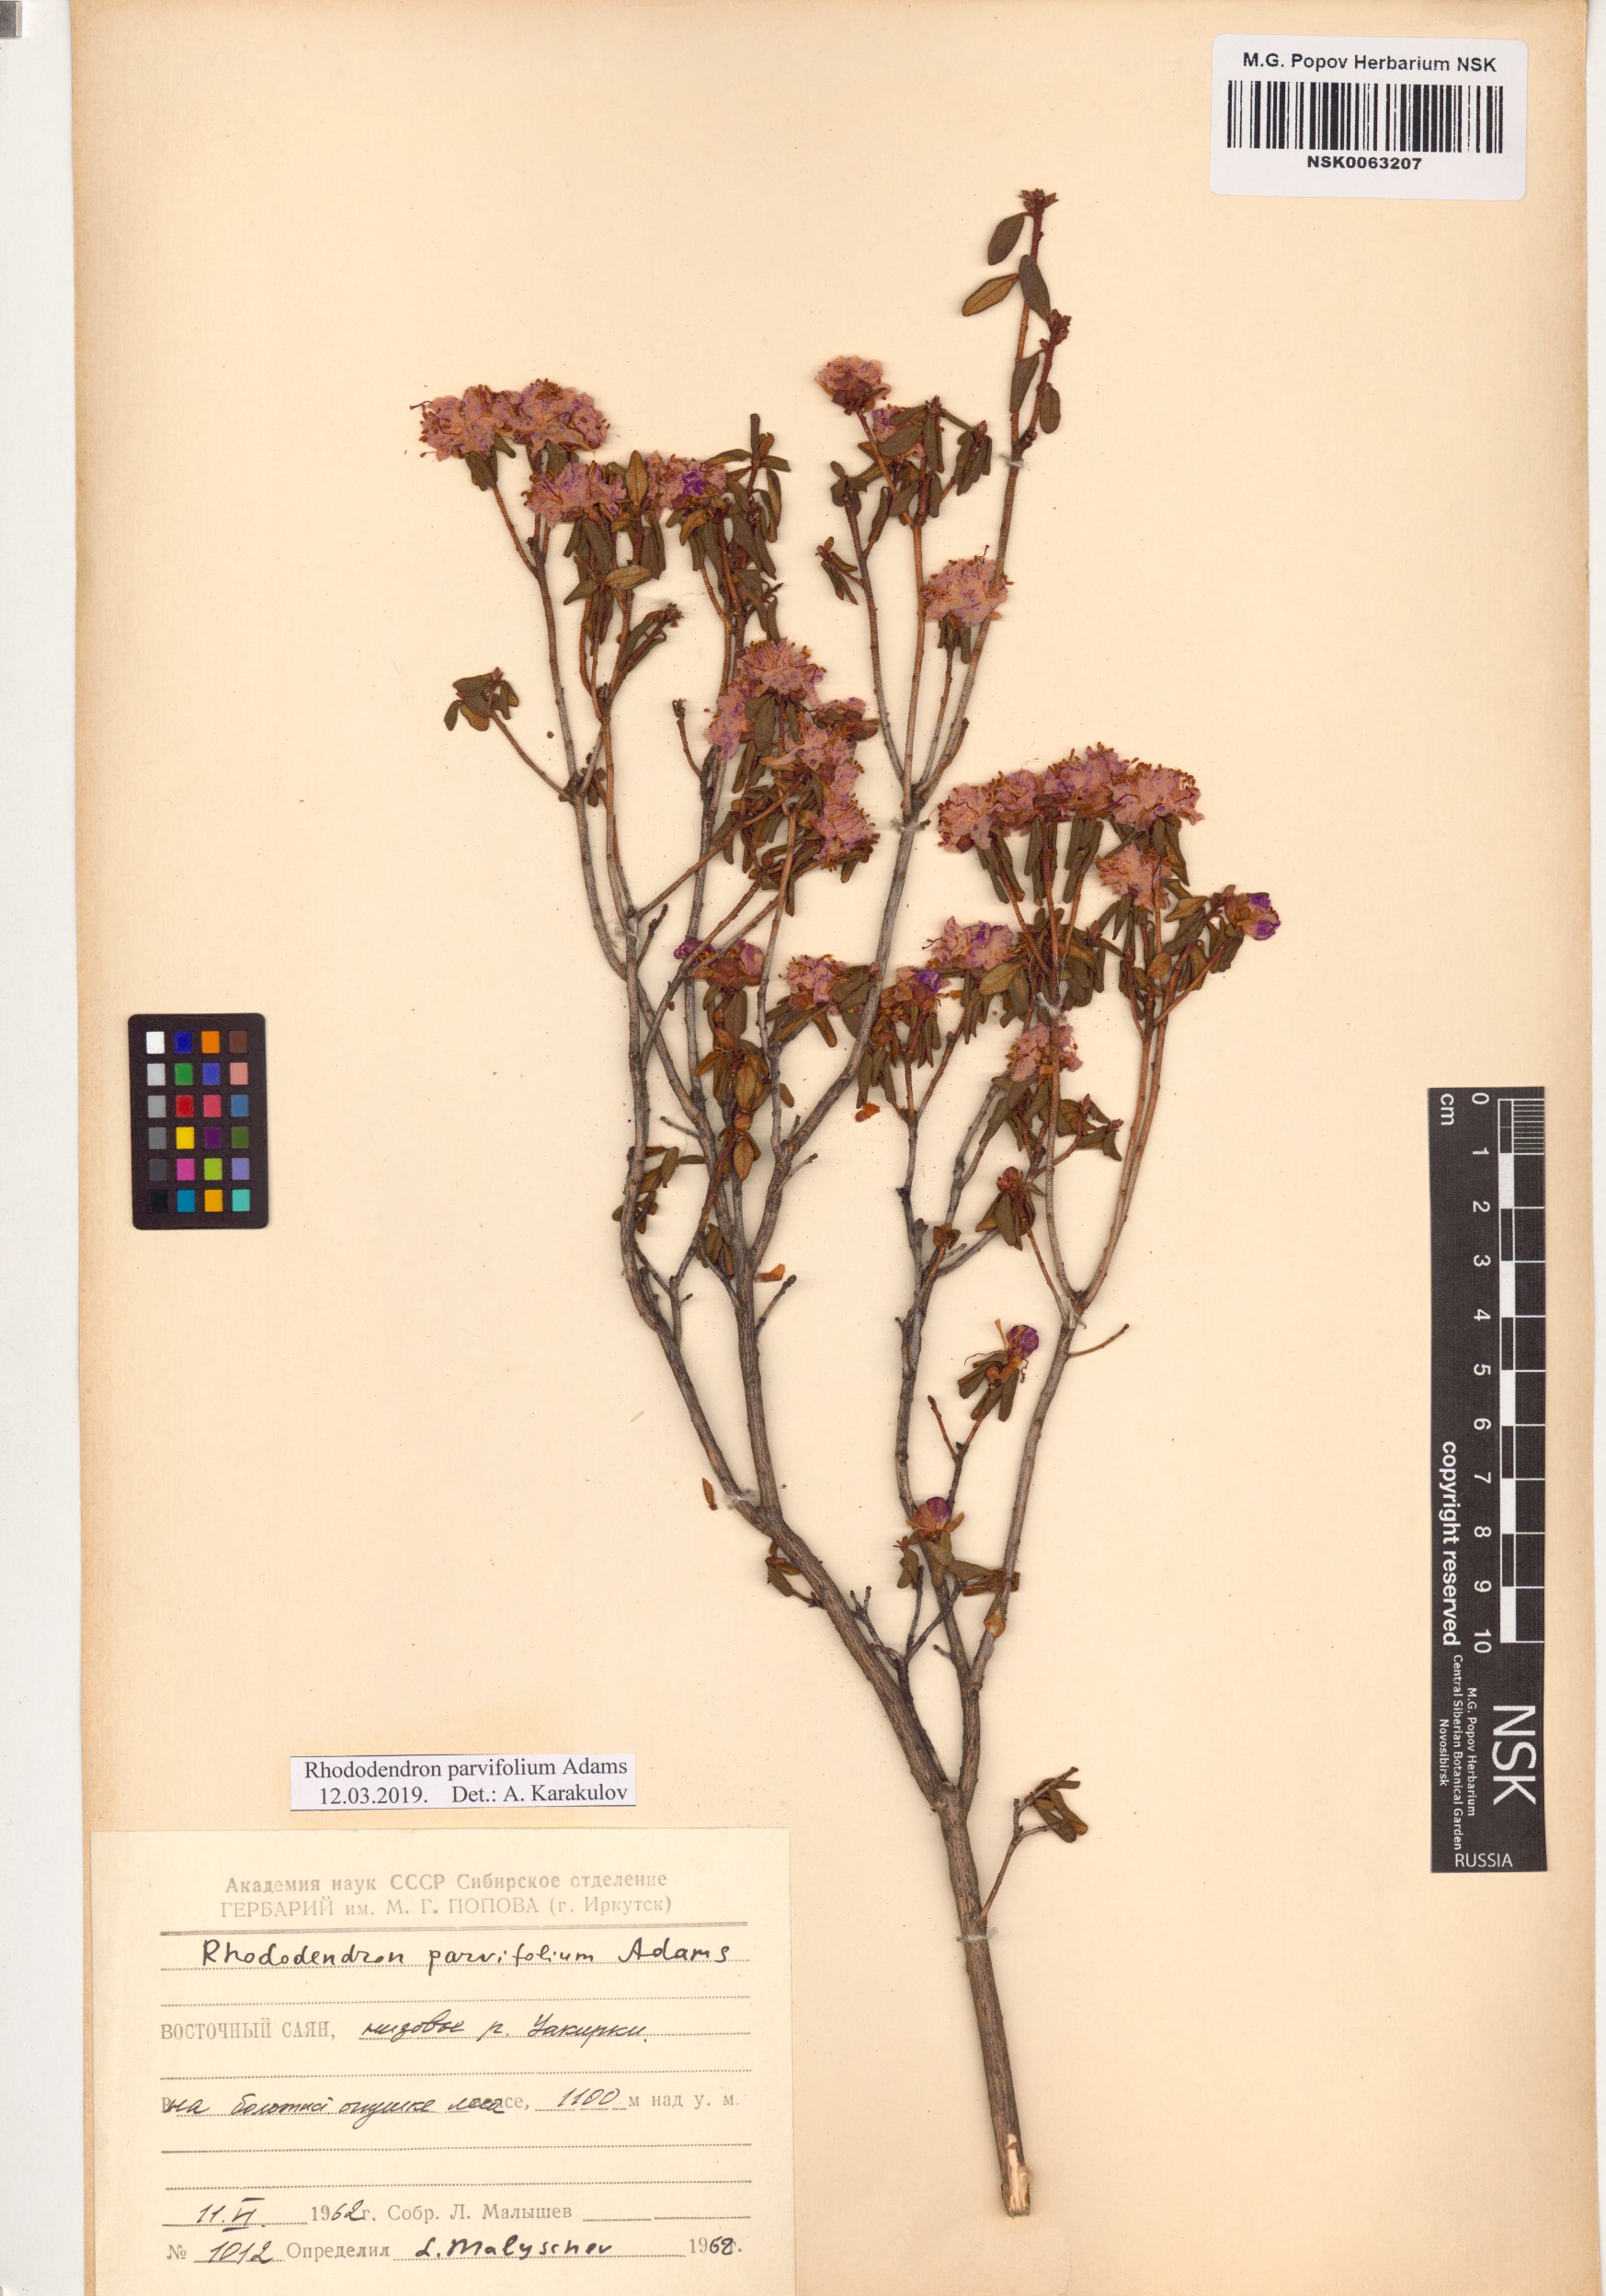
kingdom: Plantae
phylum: Tracheophyta
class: Magnoliopsida
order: Ericales
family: Ericaceae
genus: Rhododendron
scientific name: Rhododendron parvifolium
